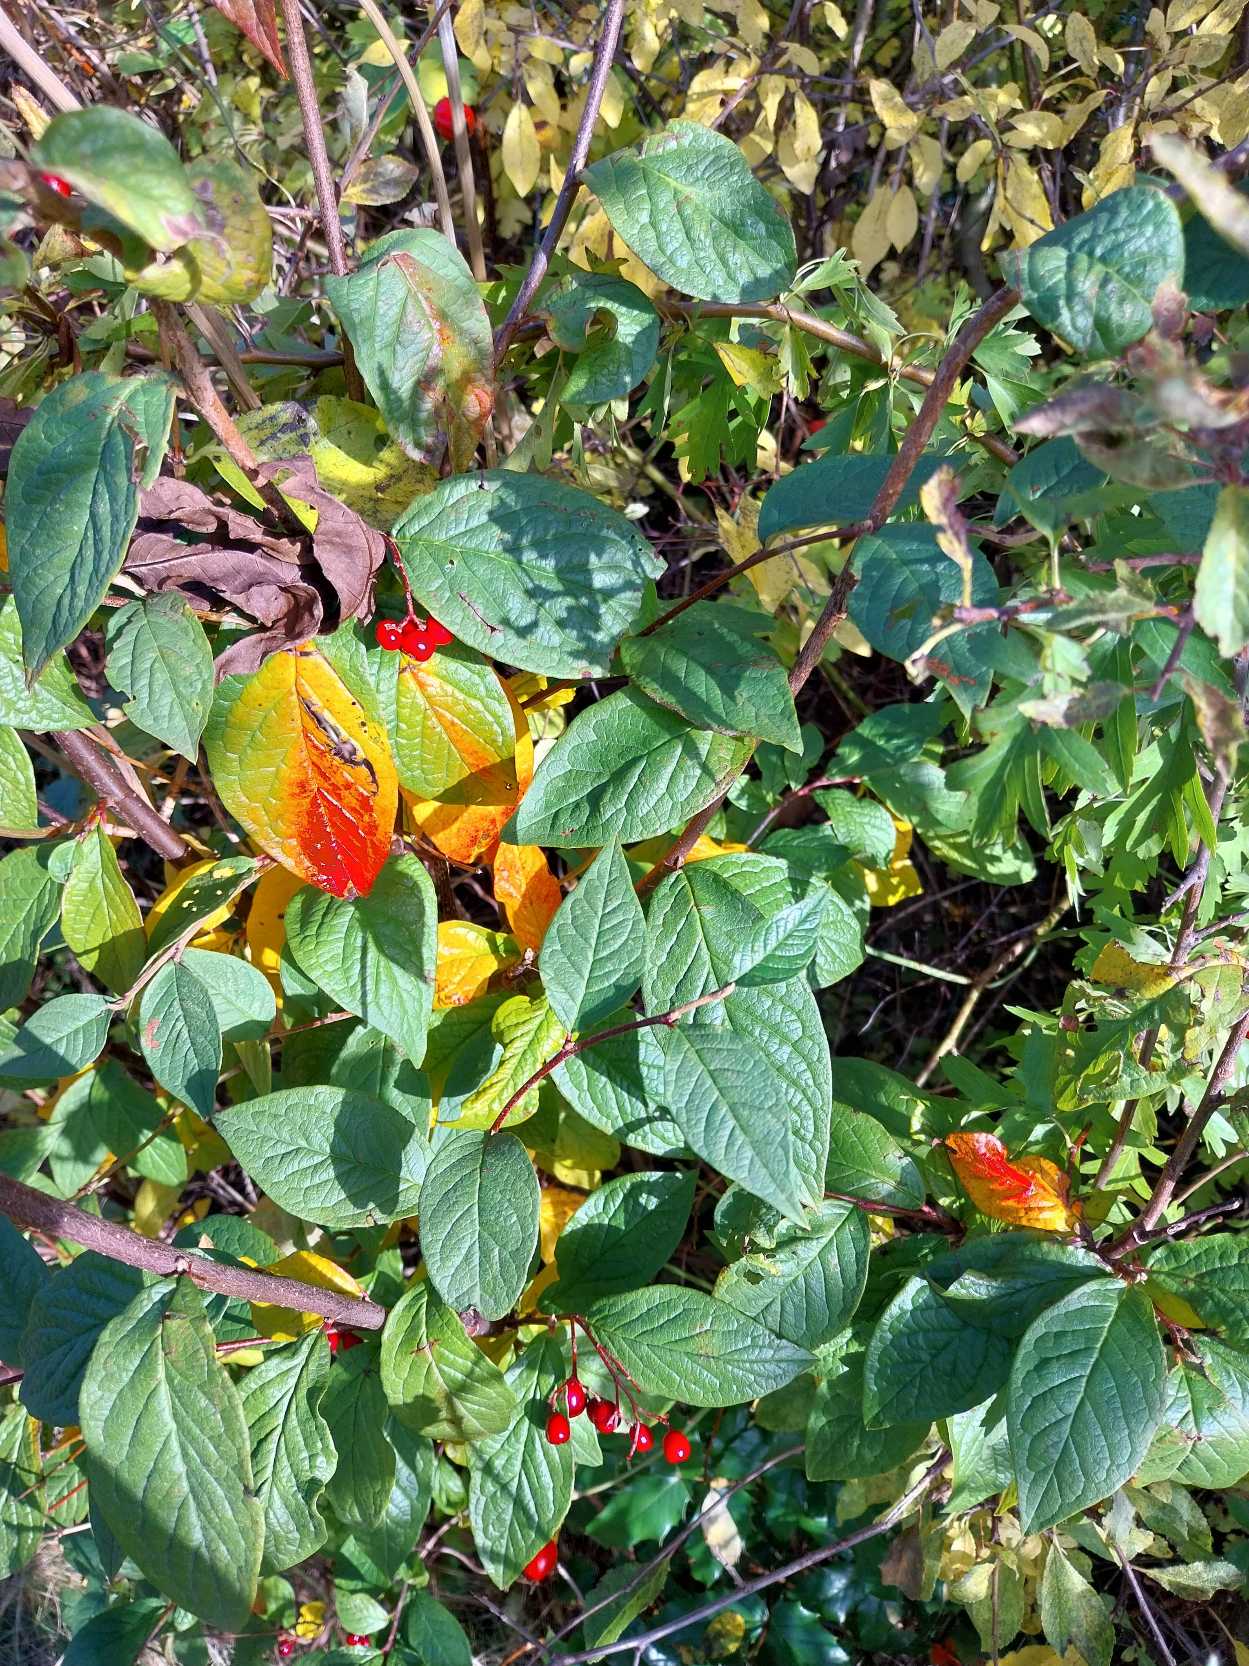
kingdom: Plantae
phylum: Tracheophyta
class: Magnoliopsida
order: Rosales
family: Rosaceae
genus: Cotoneaster
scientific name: Cotoneaster bullatus
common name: Storbladet dværgmispel
